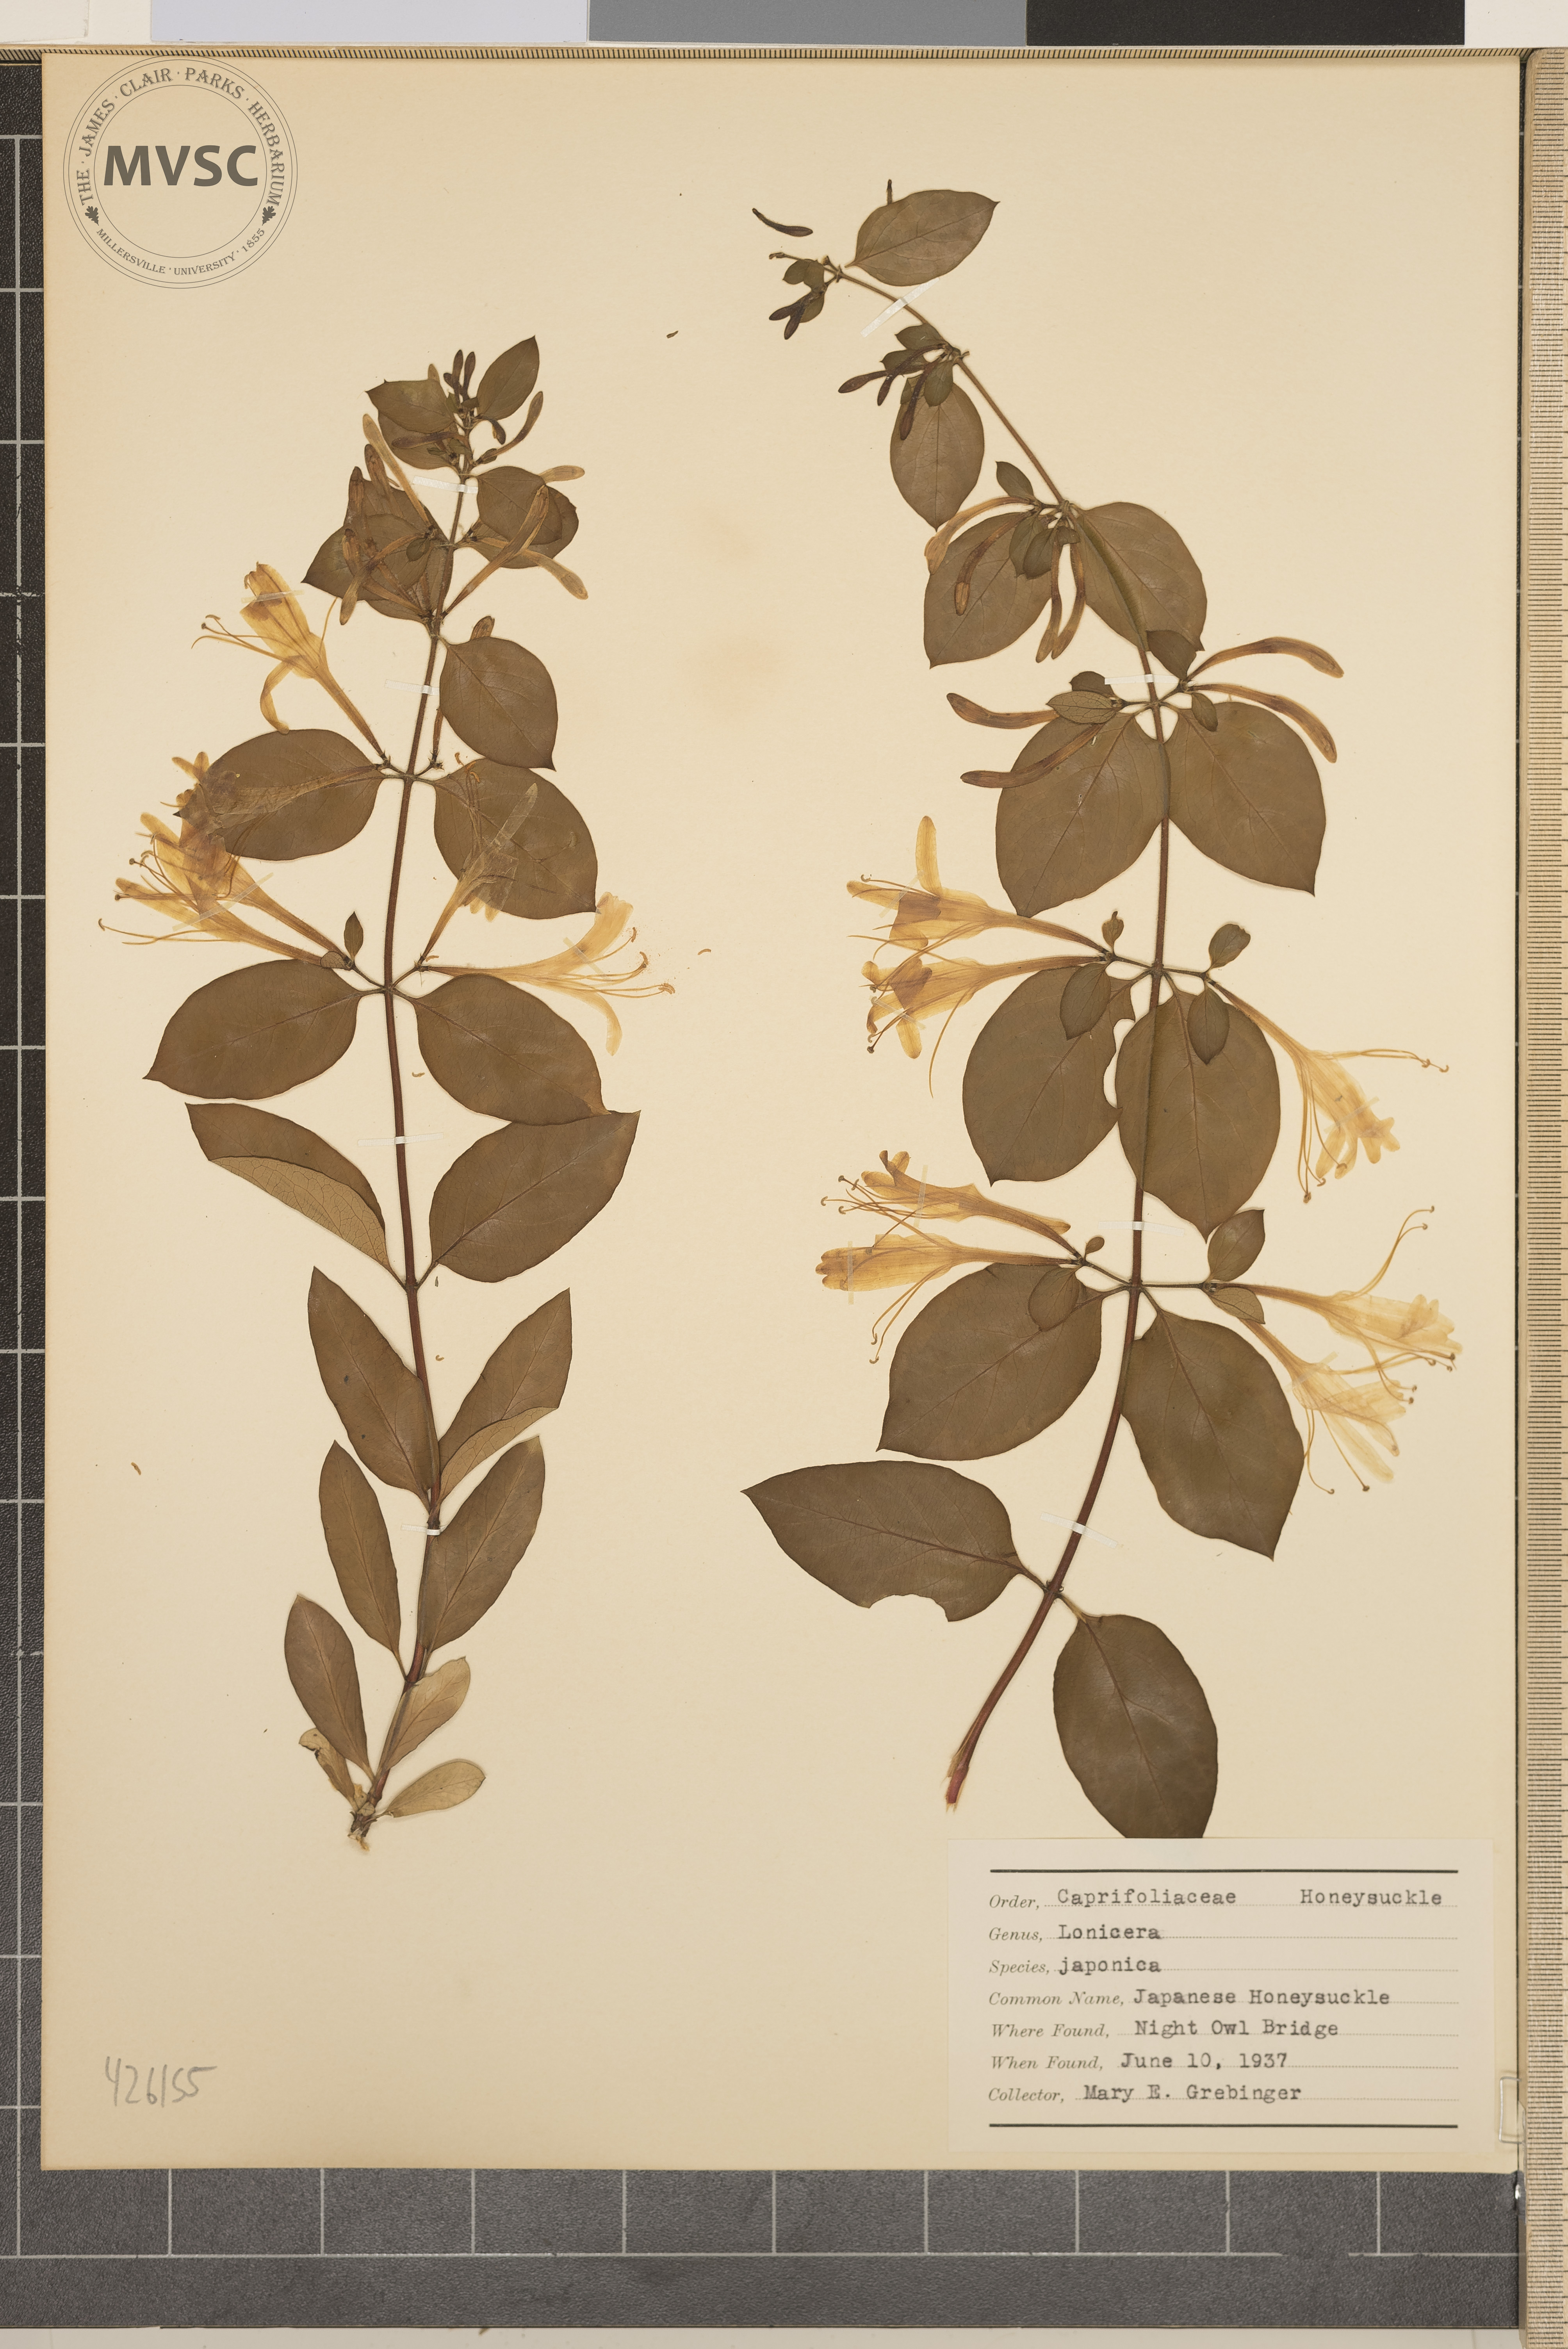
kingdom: Plantae
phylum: Tracheophyta
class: Magnoliopsida
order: Dipsacales
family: Caprifoliaceae
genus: Lonicera
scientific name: Lonicera japonica
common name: Japanese honeysuckle
